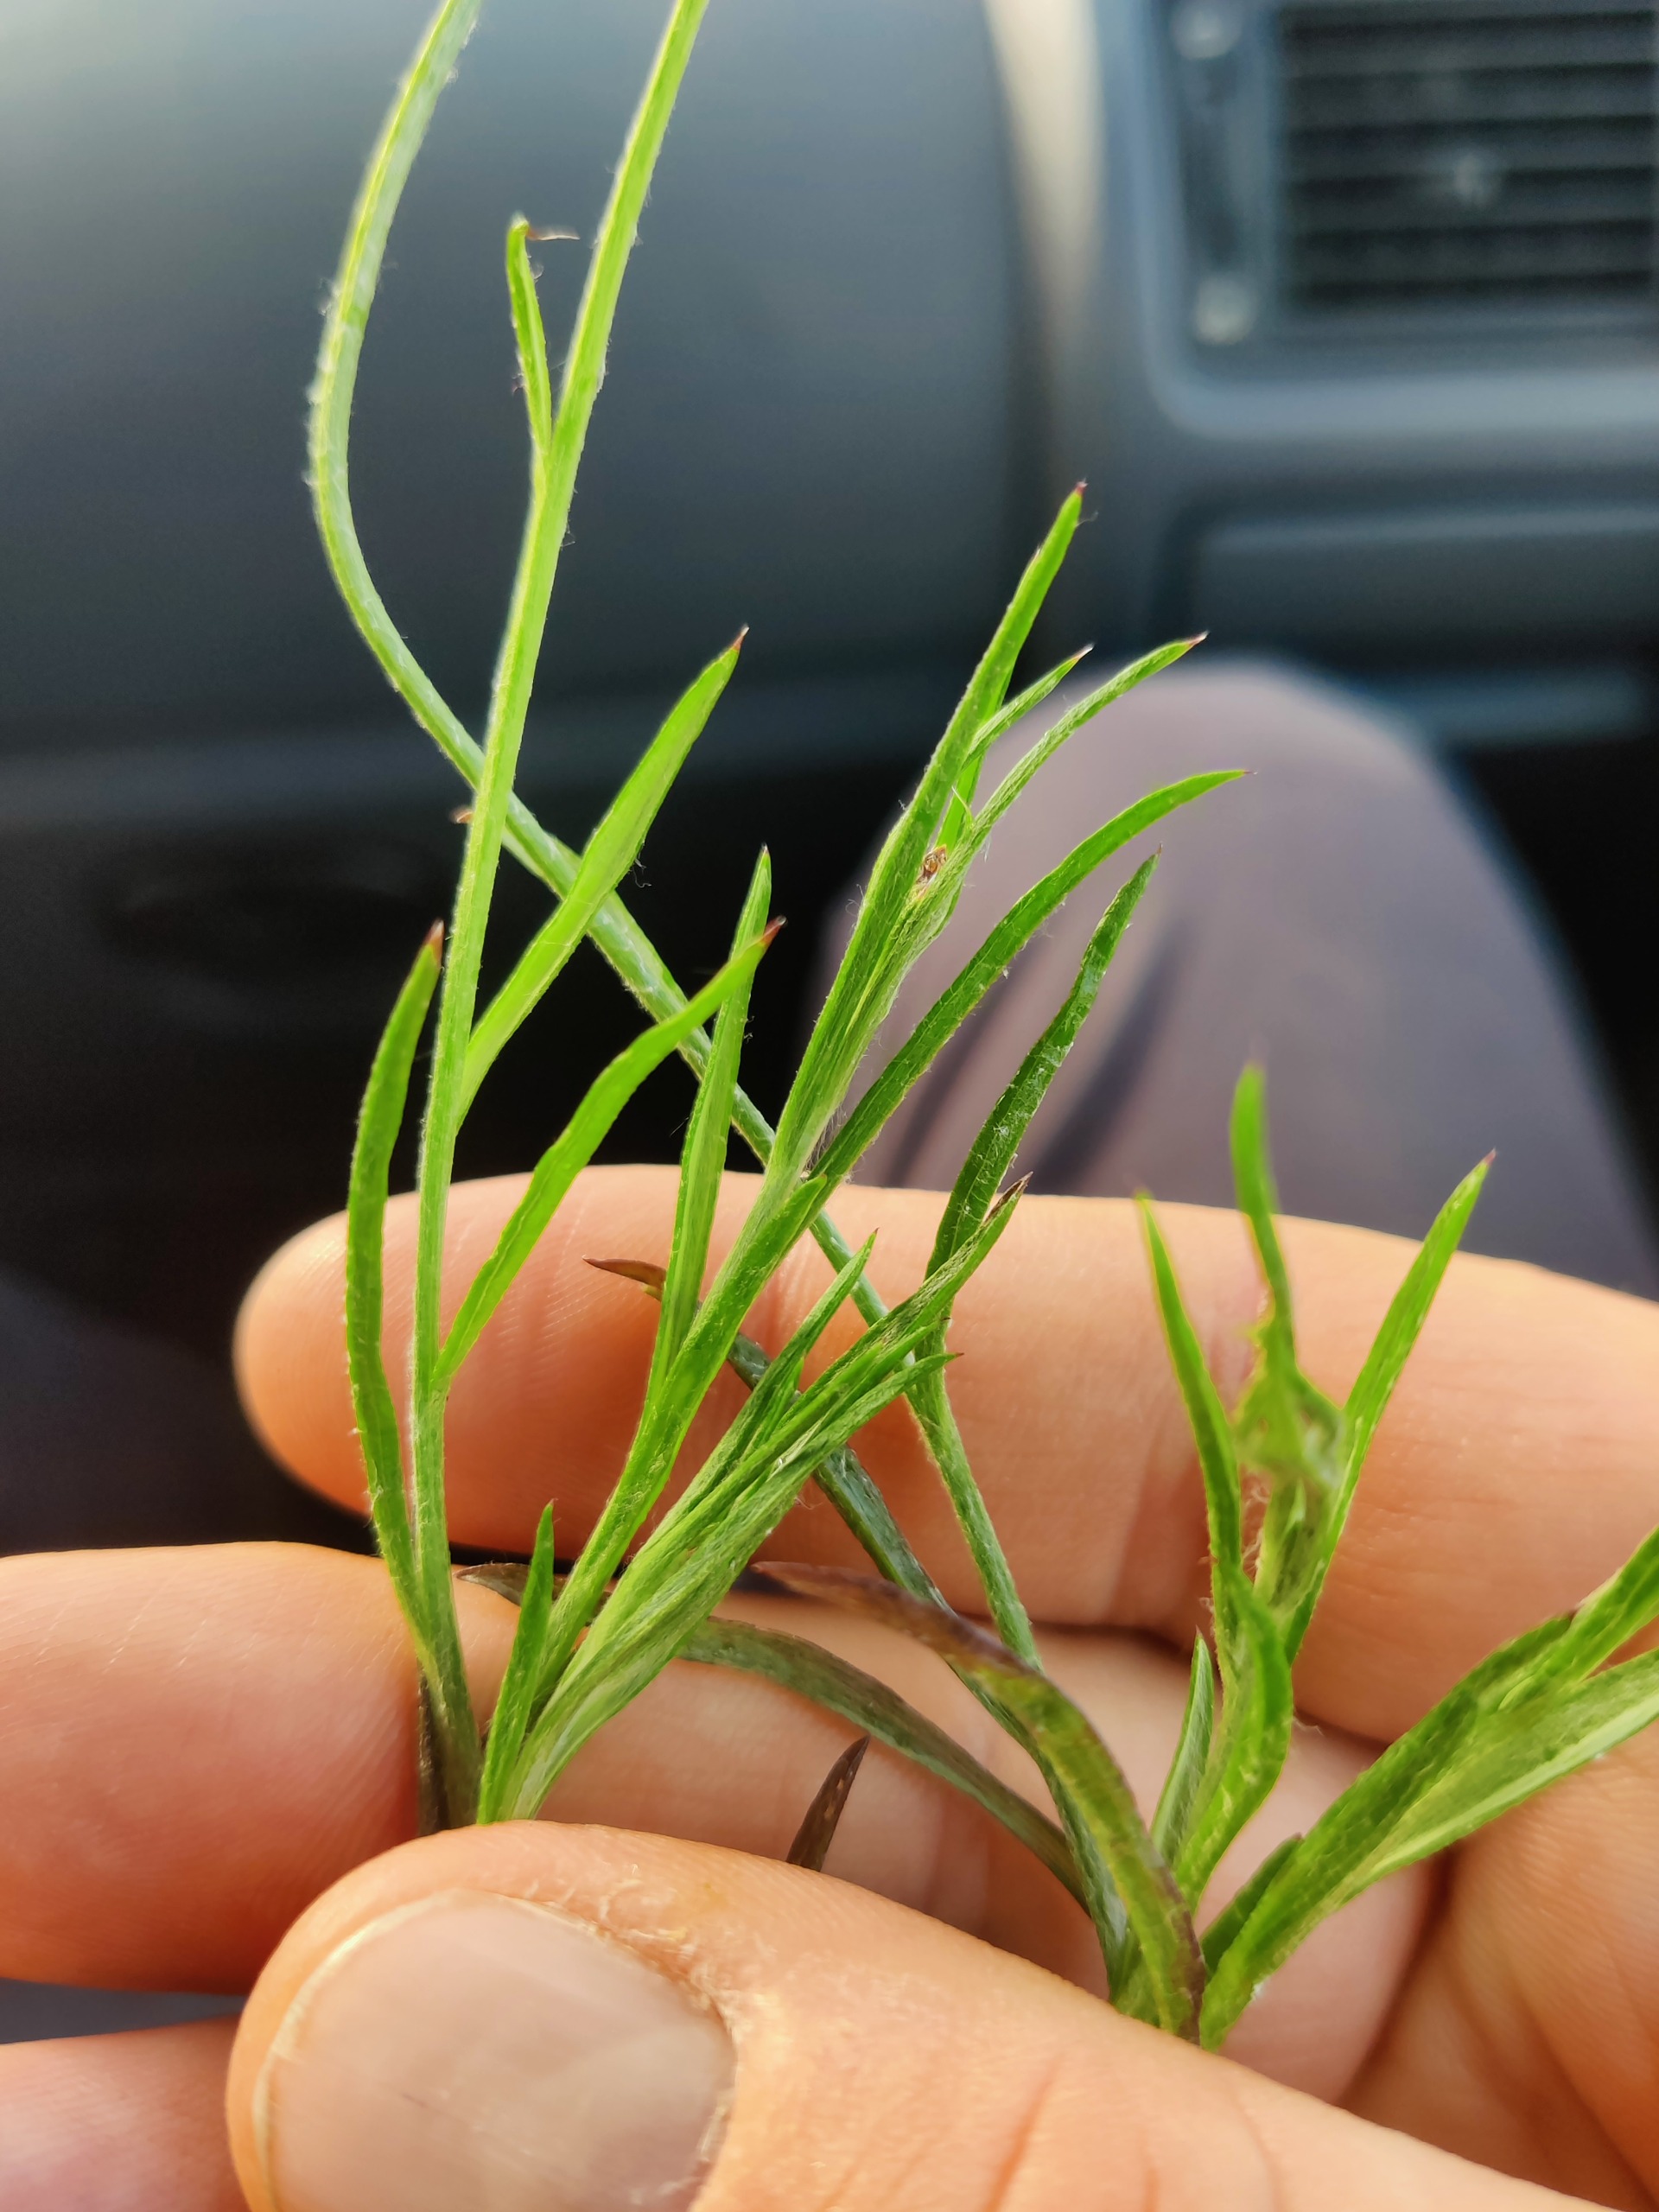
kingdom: Plantae
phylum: Tracheophyta
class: Magnoliopsida
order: Asterales
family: Asteraceae
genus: Centaurea
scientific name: Centaurea cyanus
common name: Kornblomst
